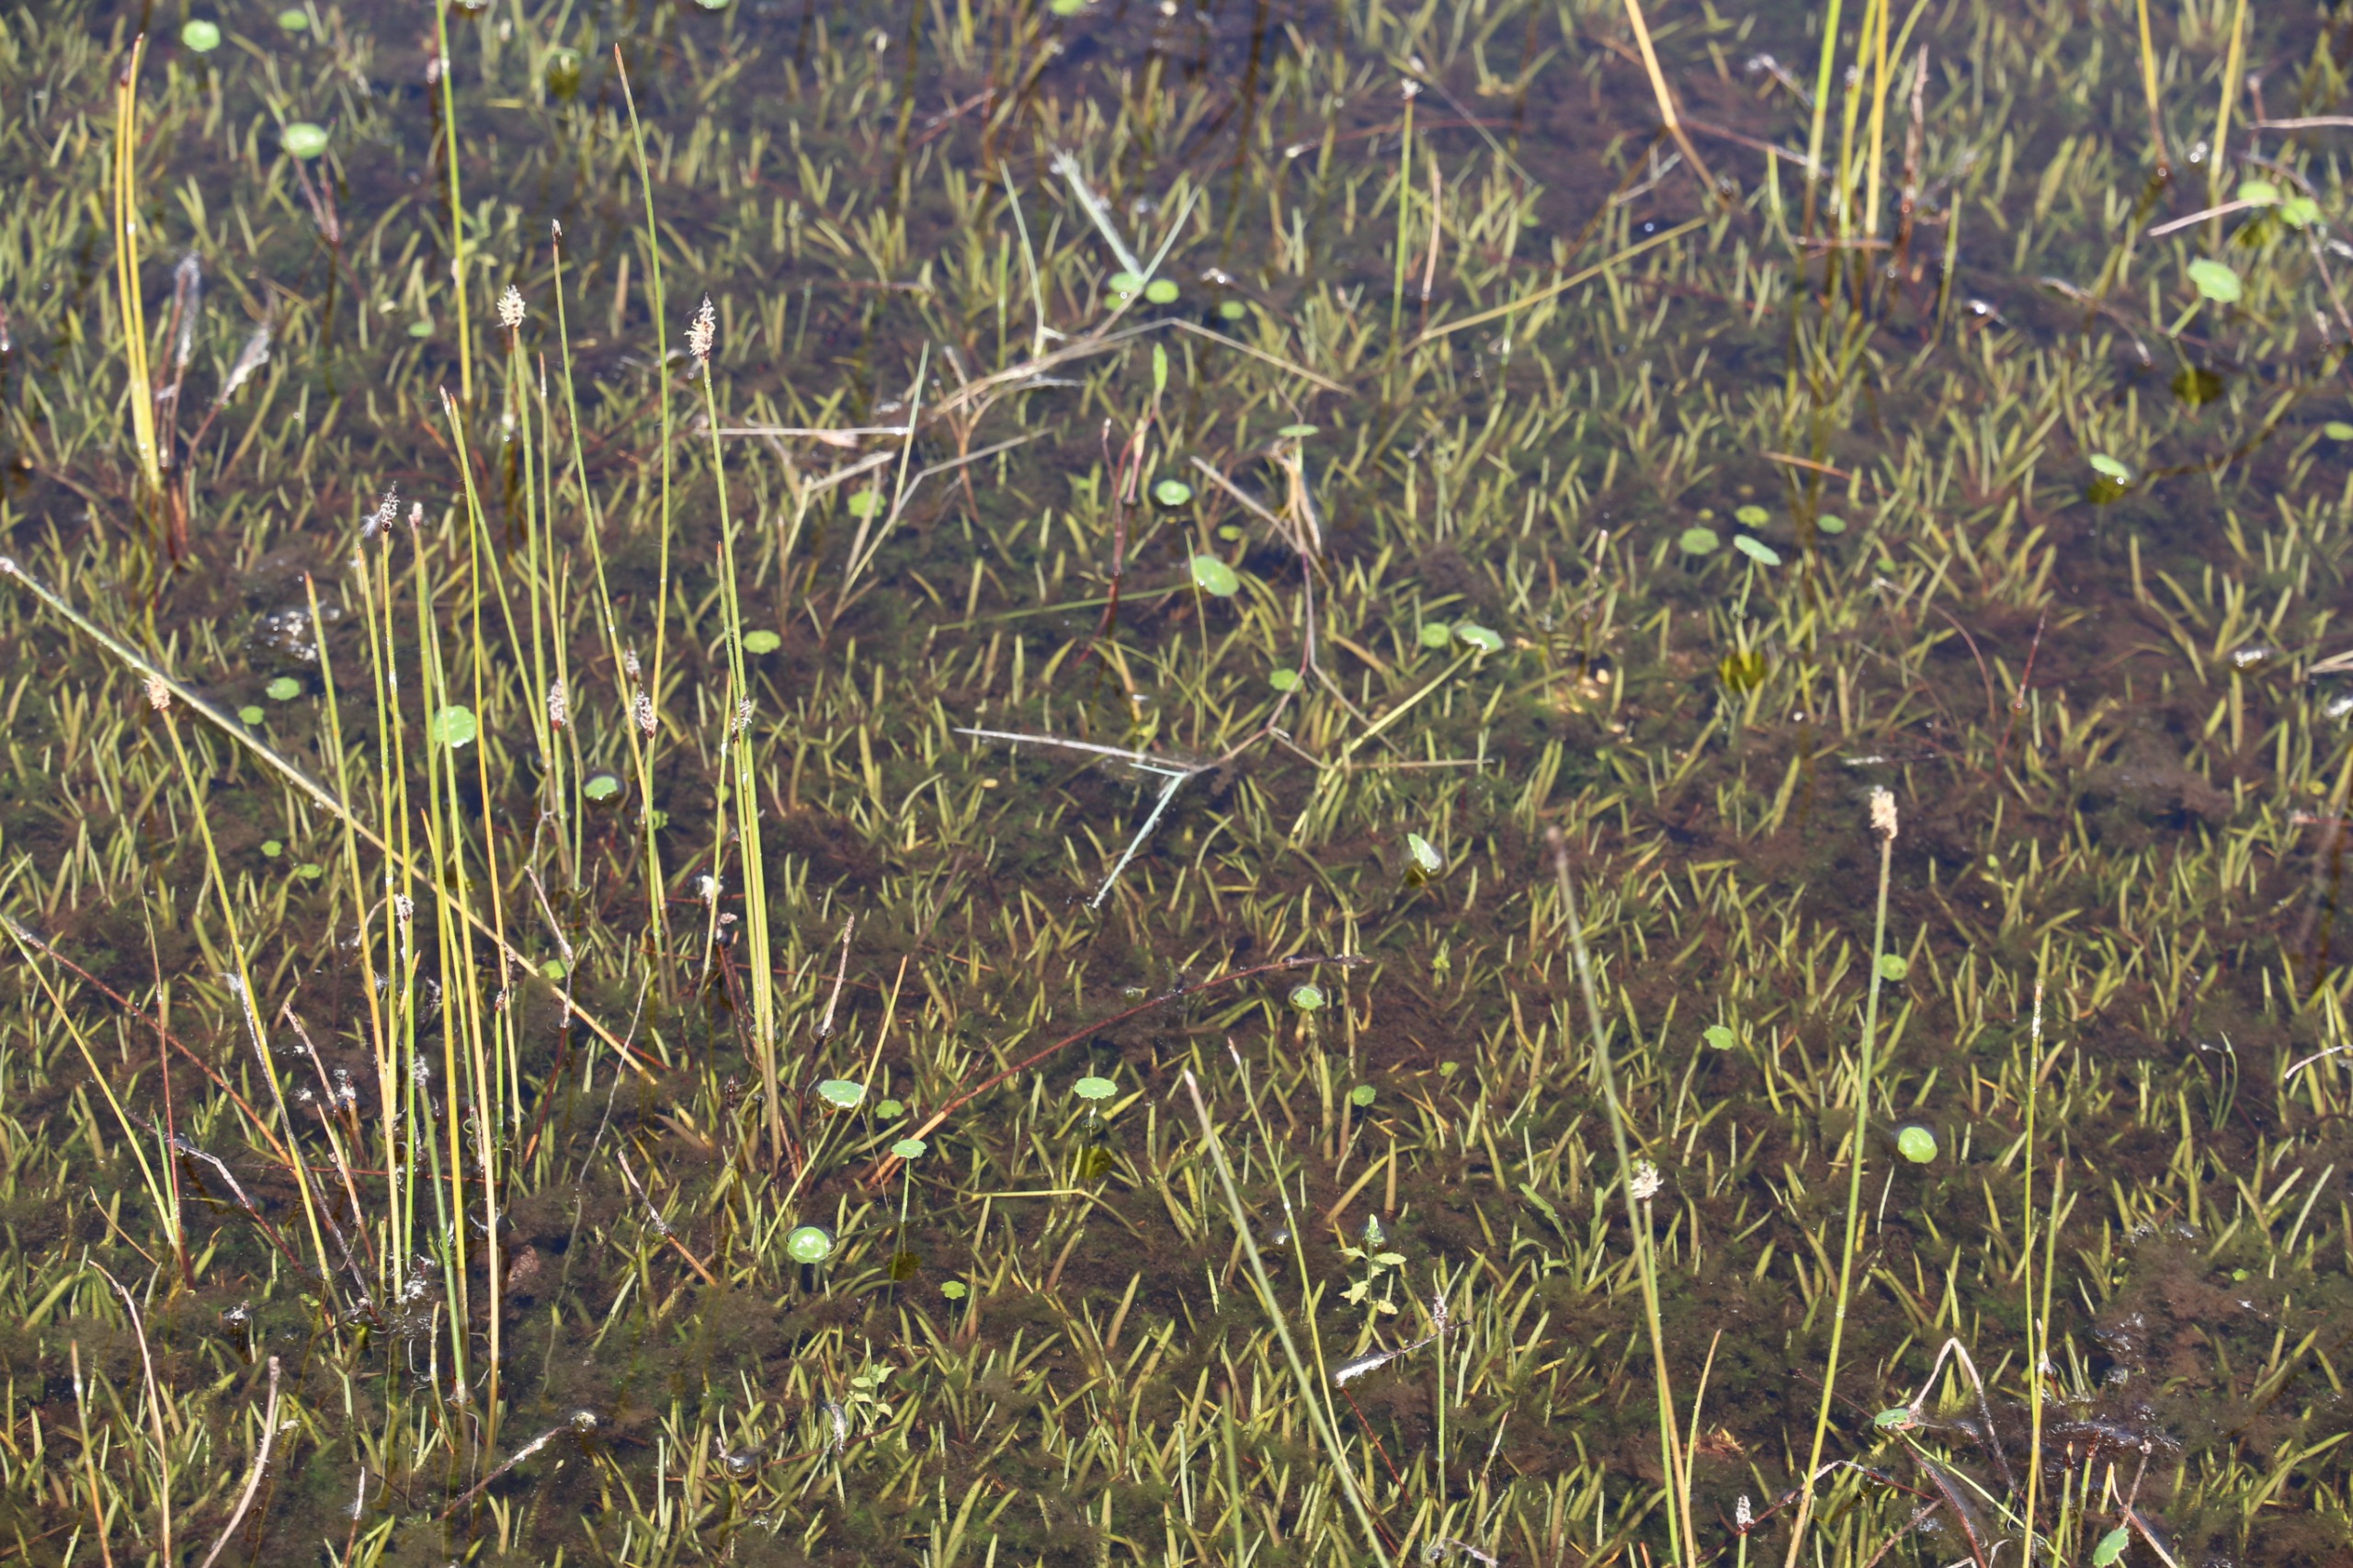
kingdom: Plantae
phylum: Tracheophyta
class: Magnoliopsida
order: Lamiales
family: Plantaginaceae
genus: Littorella
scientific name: Littorella uniflora
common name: Strandbo
